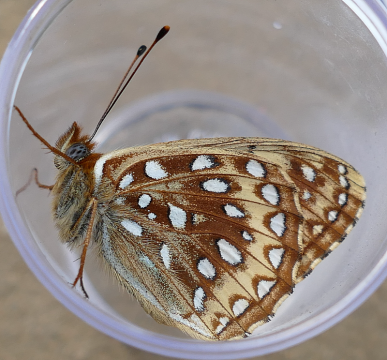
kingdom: Animalia
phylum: Arthropoda
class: Insecta
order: Lepidoptera
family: Nymphalidae
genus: Speyeria
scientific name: Speyeria atlantis
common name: Northwestern Fritillary
